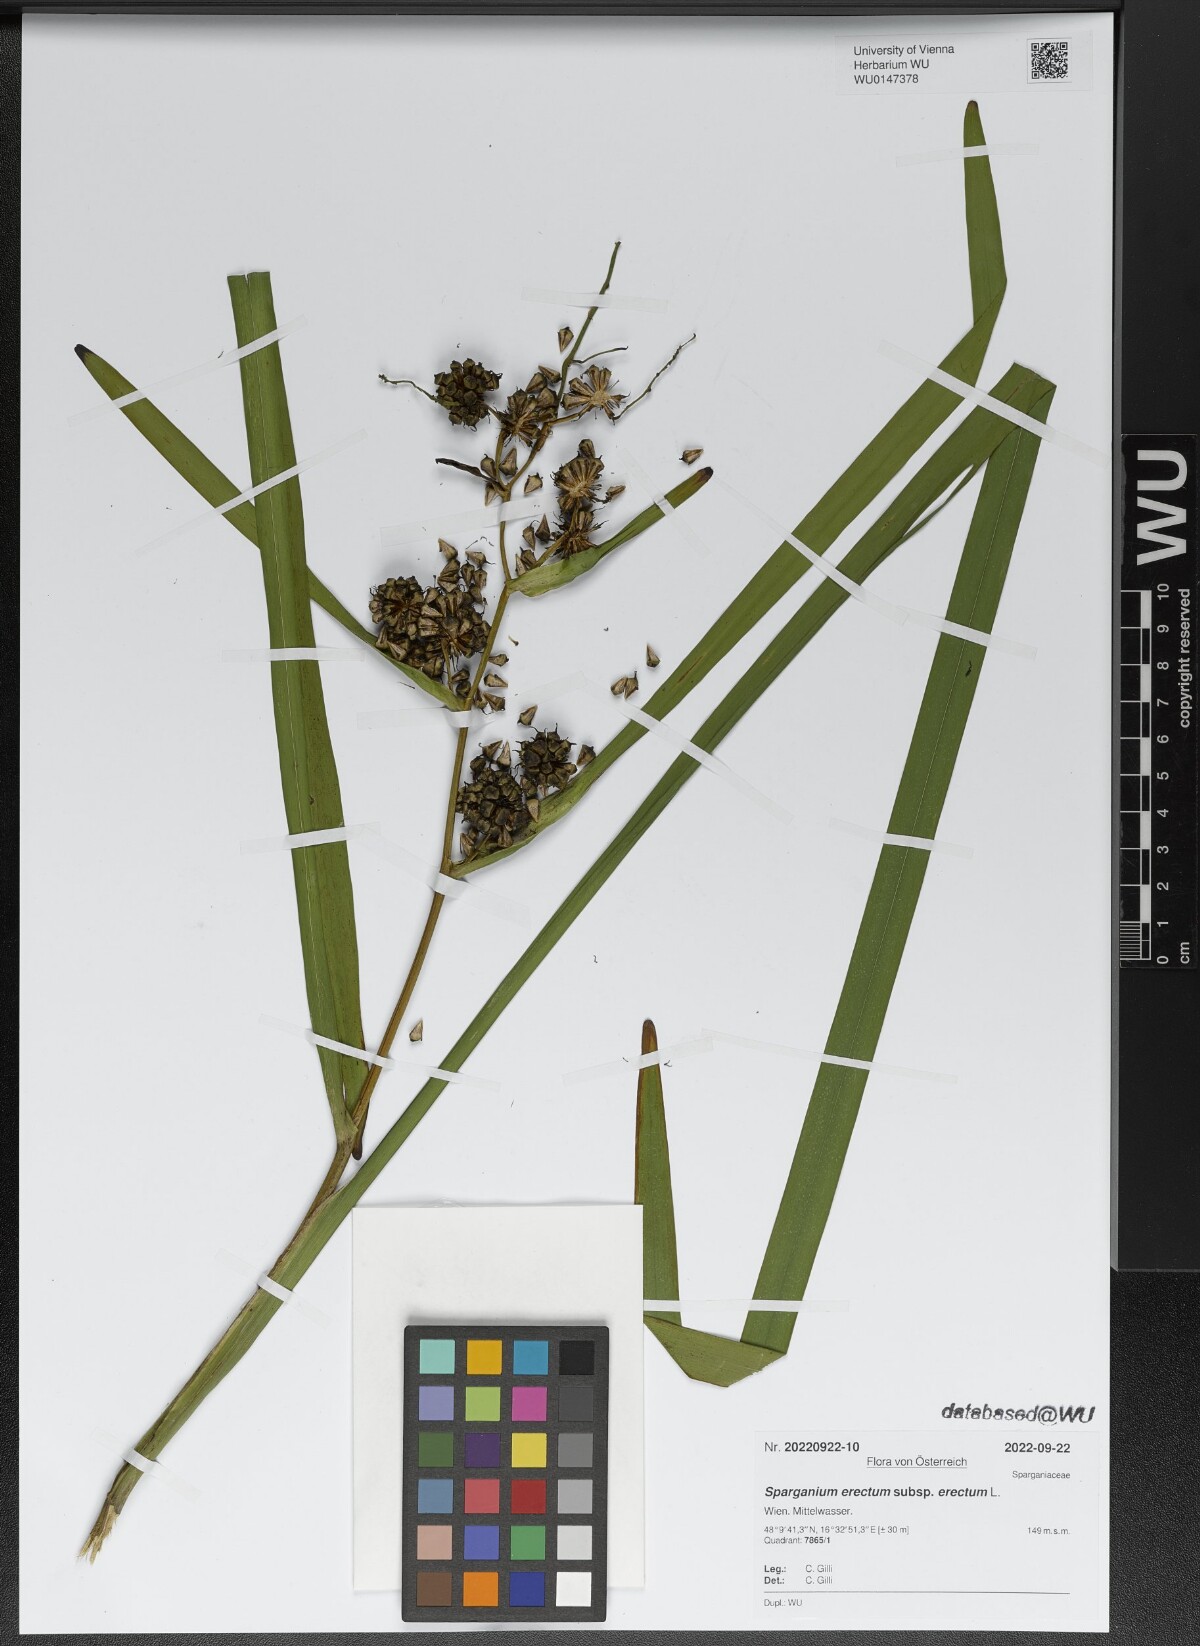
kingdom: Plantae
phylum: Tracheophyta
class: Liliopsida
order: Poales
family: Typhaceae
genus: Sparganium
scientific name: Sparganium erectum
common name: Branched bur-reed
